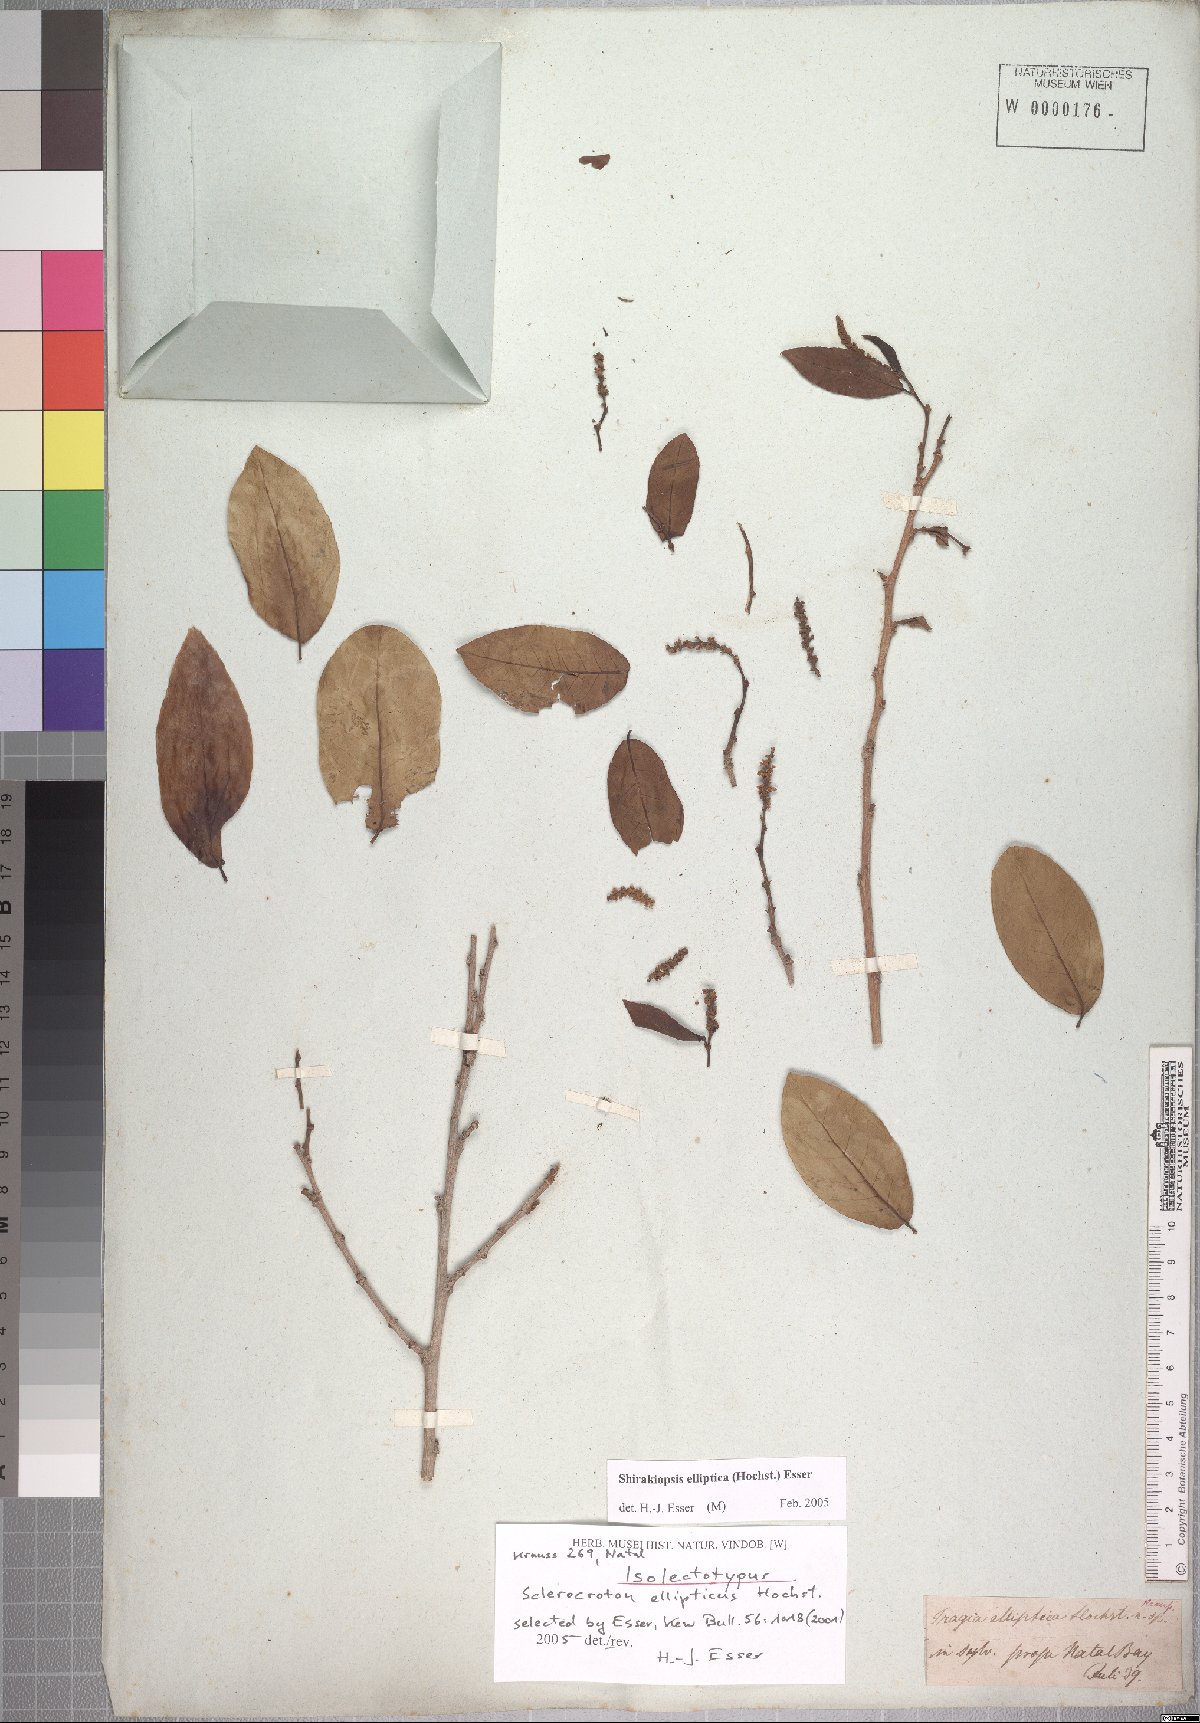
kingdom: Plantae
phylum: Tracheophyta
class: Magnoliopsida
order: Malpighiales
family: Euphorbiaceae
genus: Shirakiopsis
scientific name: Shirakiopsis elliptica
